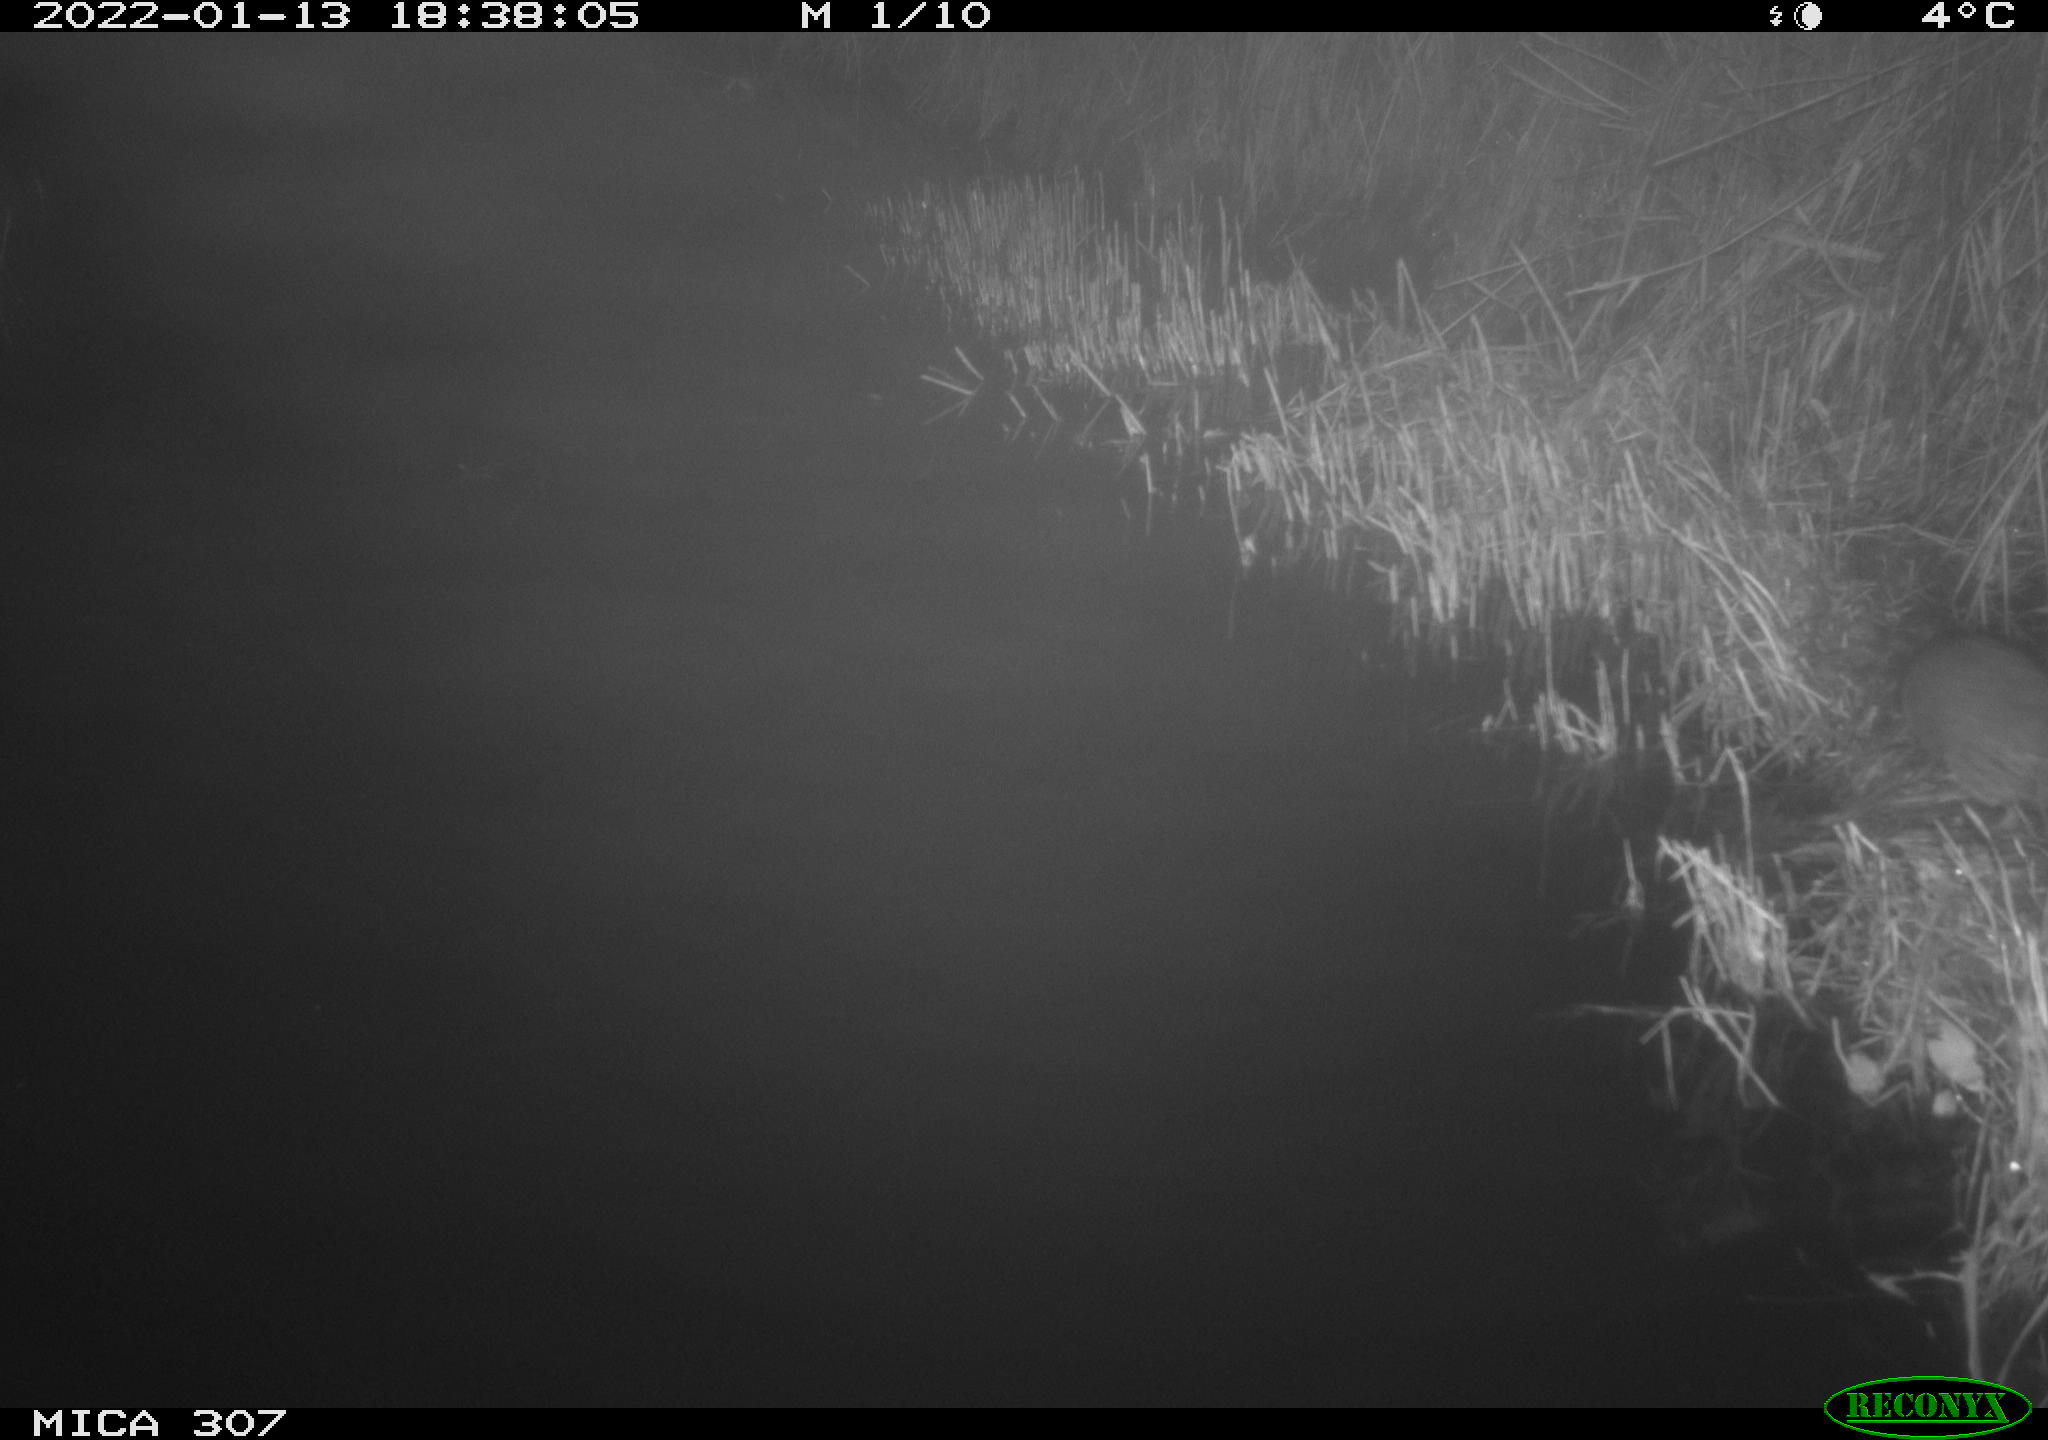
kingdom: Animalia
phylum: Chordata
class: Mammalia
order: Rodentia
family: Muridae
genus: Rattus
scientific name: Rattus norvegicus
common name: Brown rat
